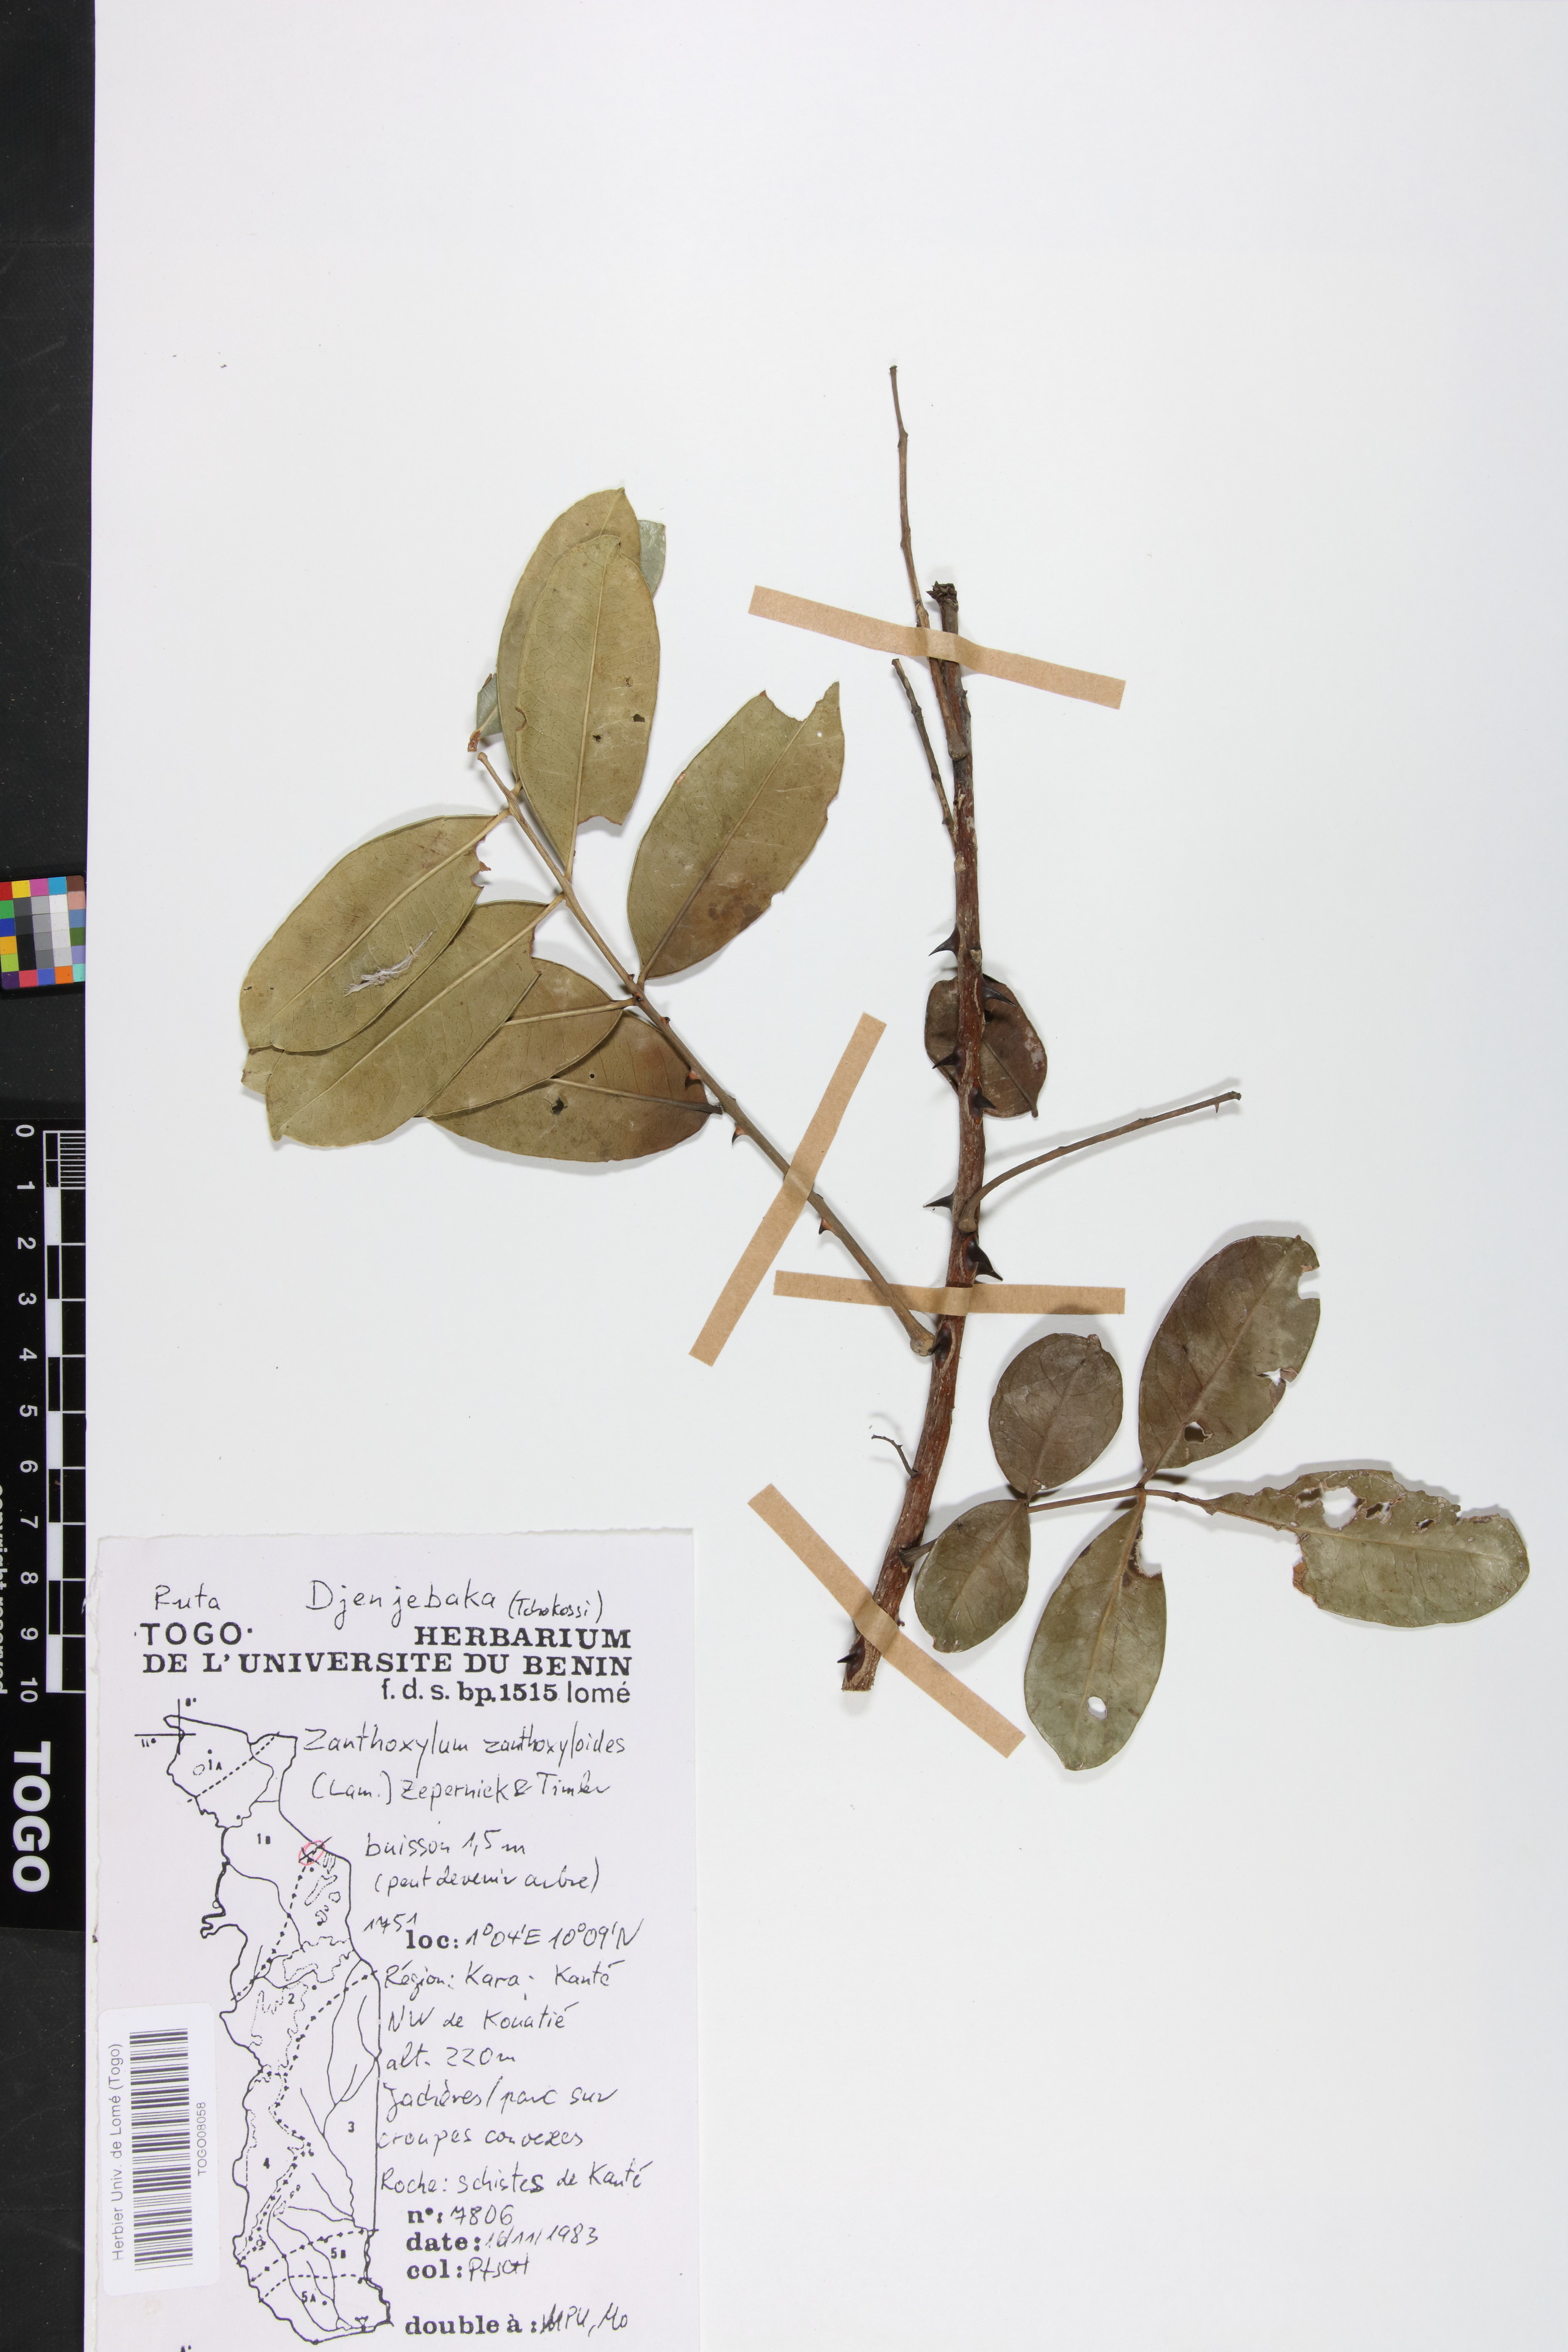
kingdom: Plantae
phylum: Tracheophyta
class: Magnoliopsida
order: Sapindales
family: Rutaceae
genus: Zanthoxylum
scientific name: Zanthoxylum zanthoxyloides
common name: Senegal prickly-ash
